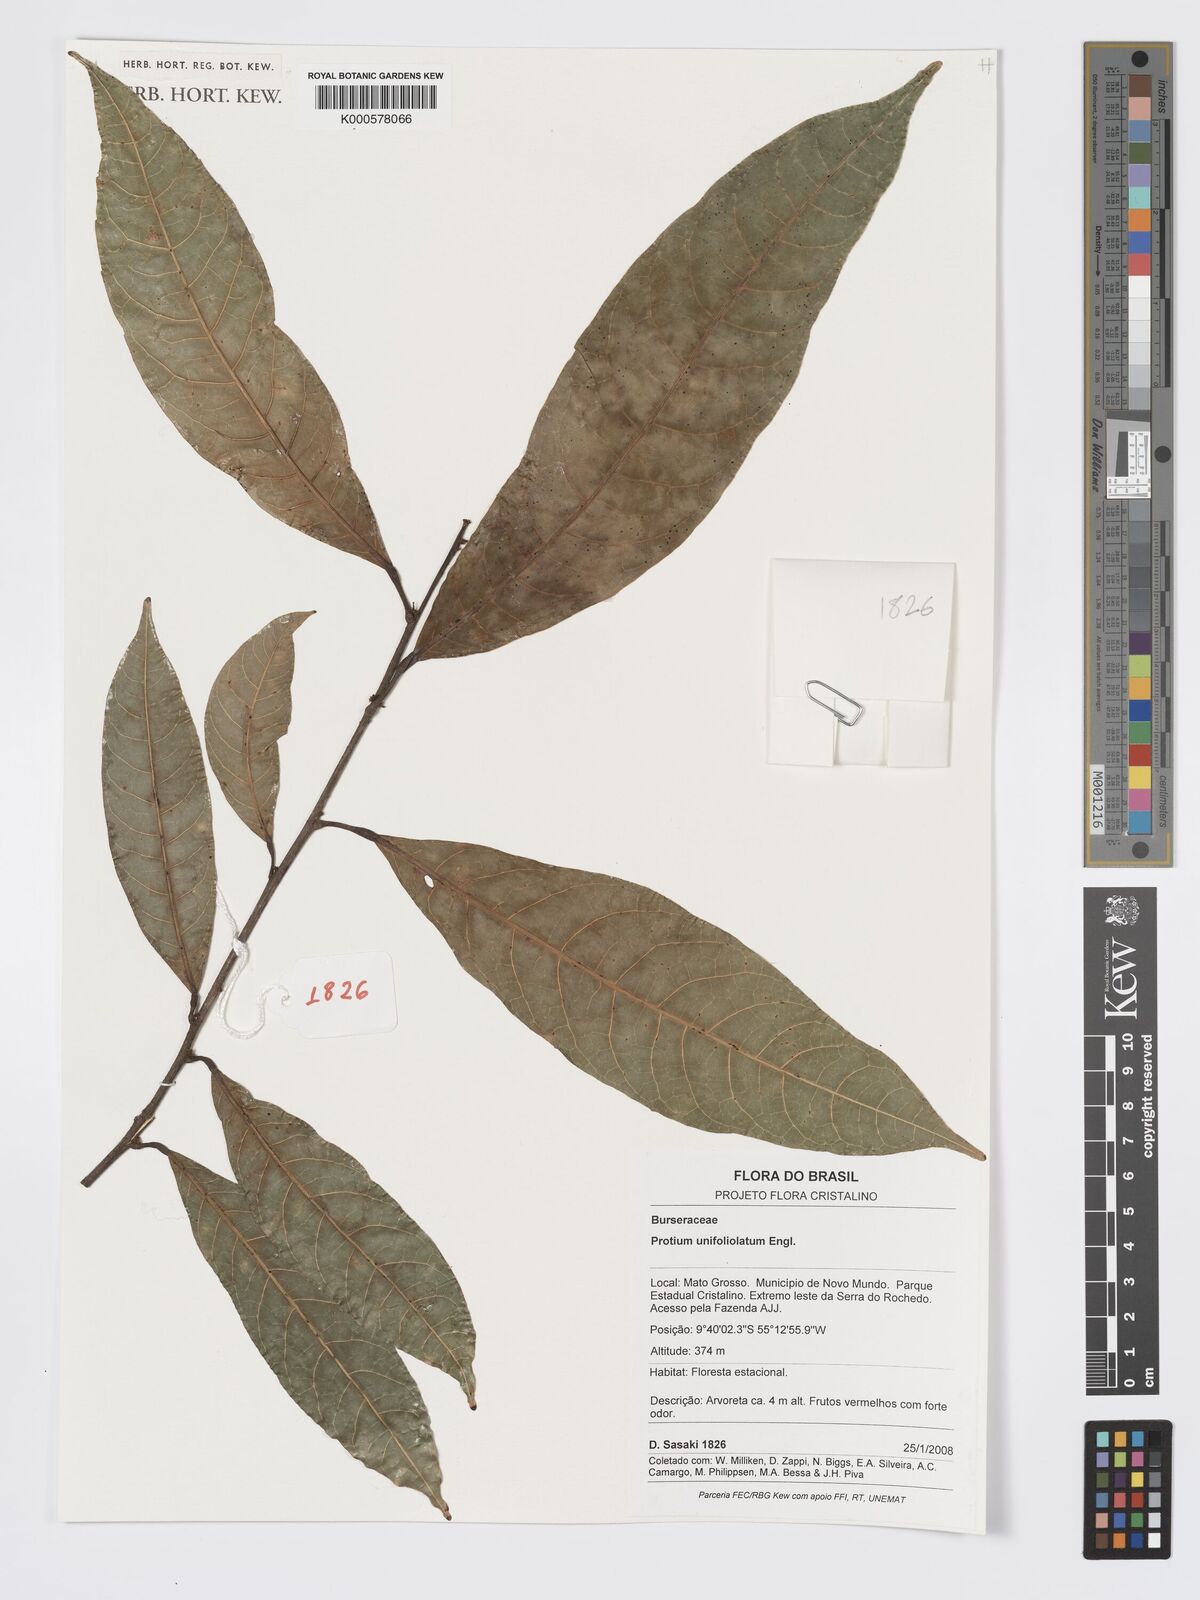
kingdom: Plantae
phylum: Tracheophyta
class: Magnoliopsida
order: Sapindales
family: Burseraceae
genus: Protium
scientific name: Protium unifoliolatum
